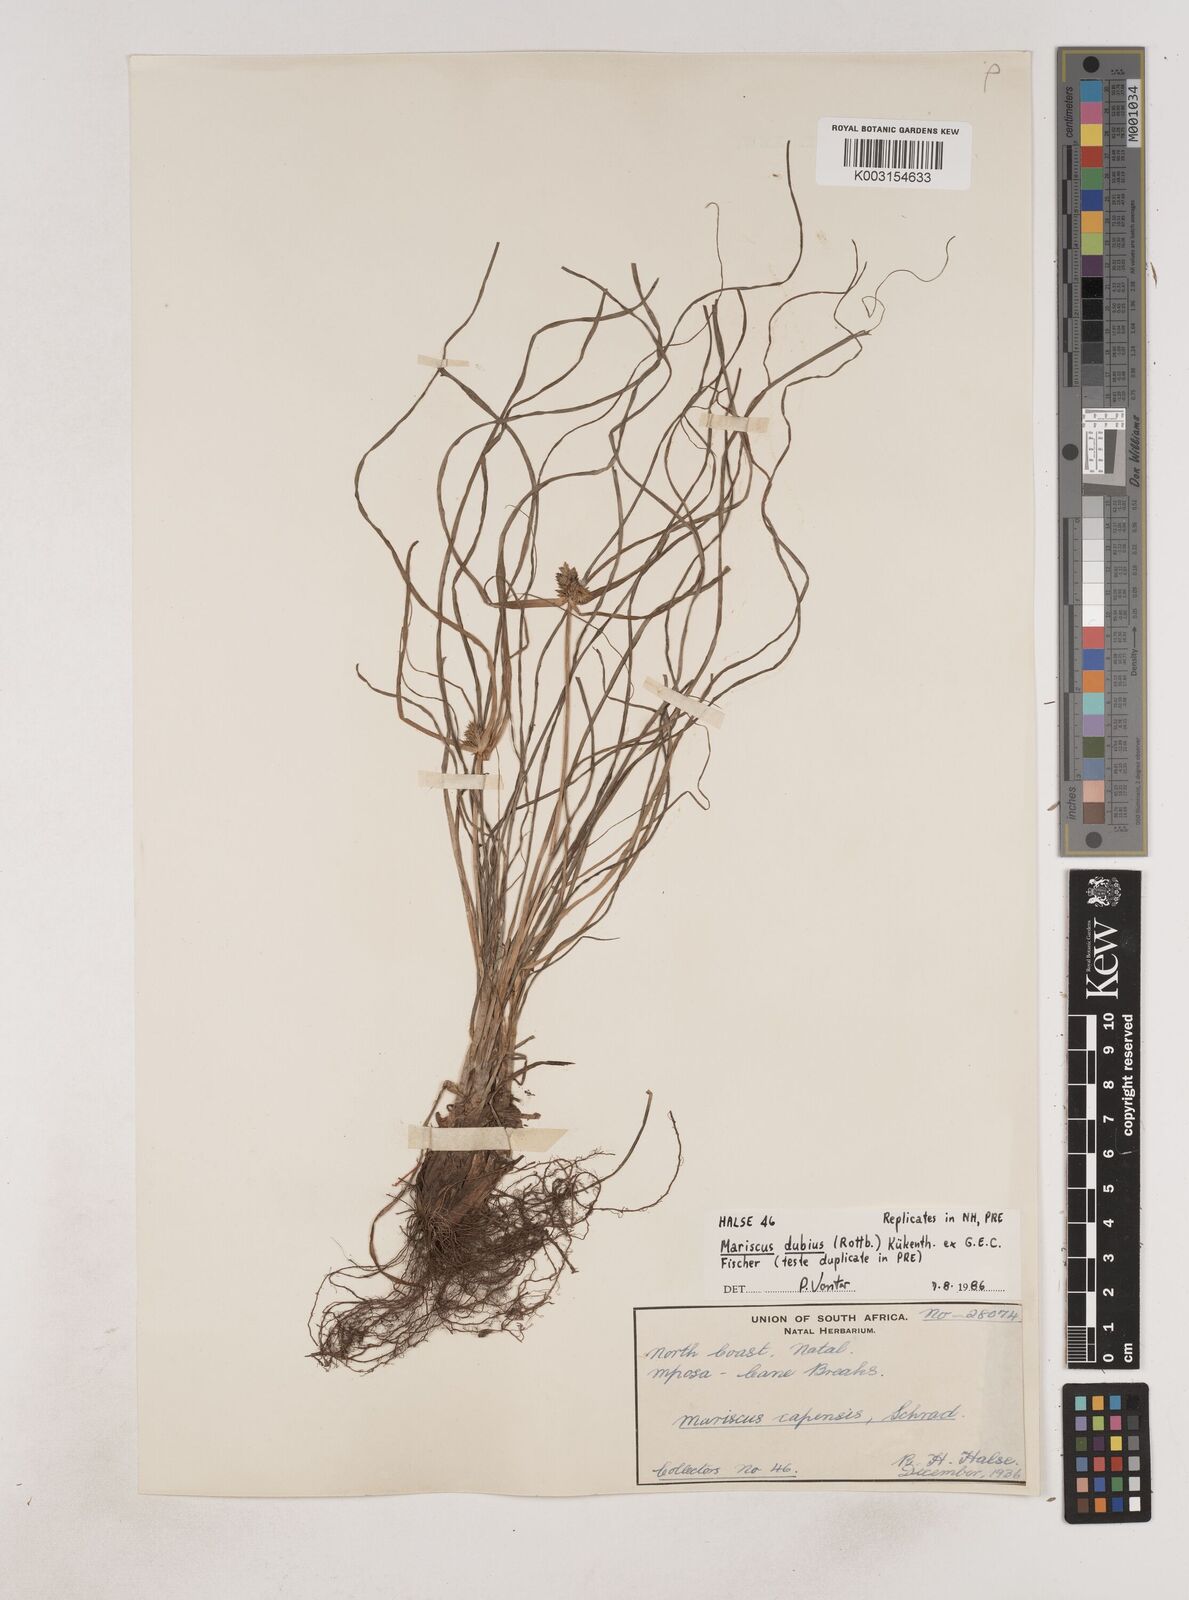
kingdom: Plantae
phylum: Tracheophyta
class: Liliopsida
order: Poales
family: Cyperaceae
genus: Cyperus
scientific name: Cyperus dubius
